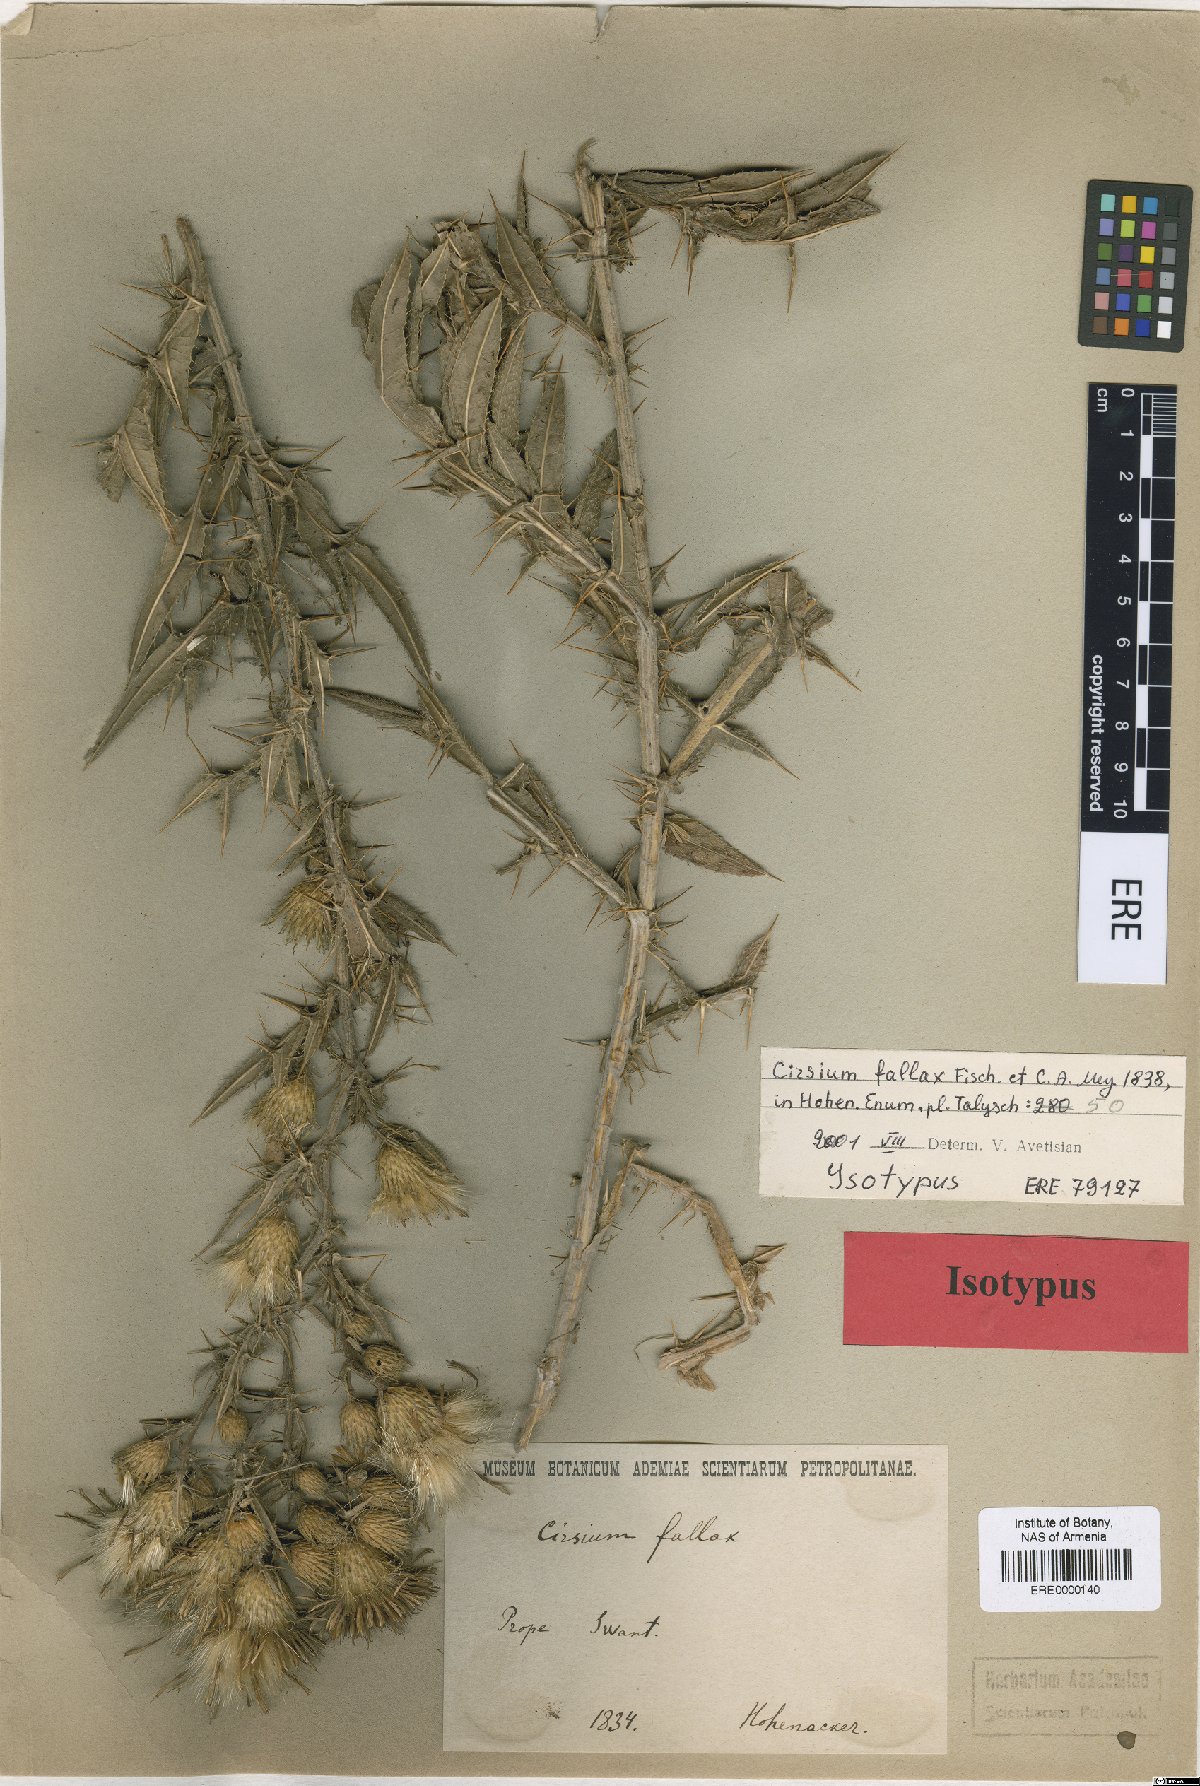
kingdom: Plantae
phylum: Tracheophyta
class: Magnoliopsida
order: Asterales
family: Asteraceae
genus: Lophiolepis
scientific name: Lophiolepis adunca
